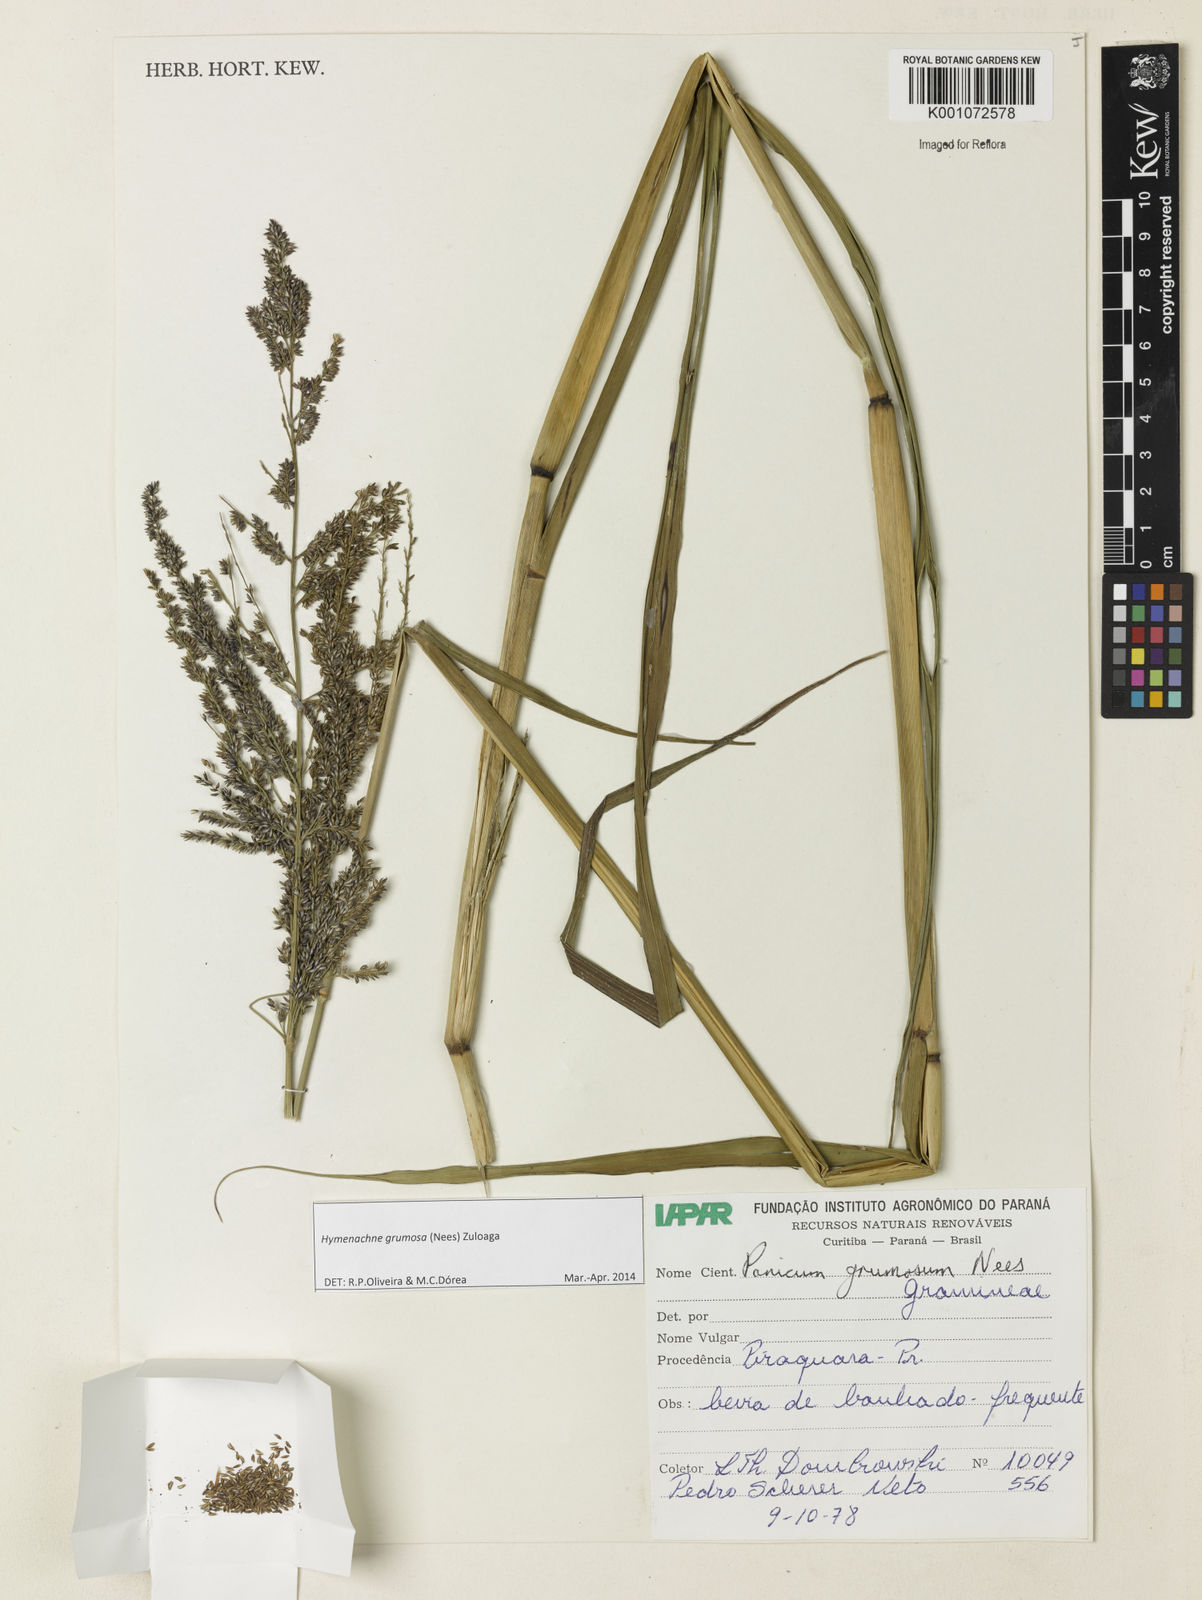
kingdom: Plantae
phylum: Tracheophyta
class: Liliopsida
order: Poales
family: Poaceae
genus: Hymenachne
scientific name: Hymenachne grumosa
